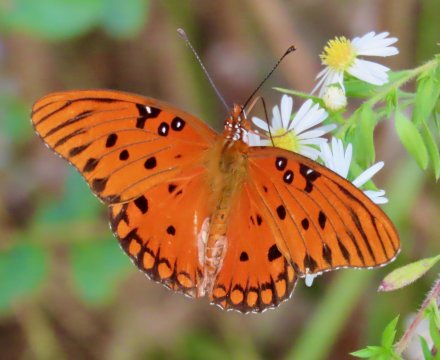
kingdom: Animalia
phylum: Arthropoda
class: Insecta
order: Lepidoptera
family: Nymphalidae
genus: Dione
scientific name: Dione vanillae
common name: Gulf Fritillary
